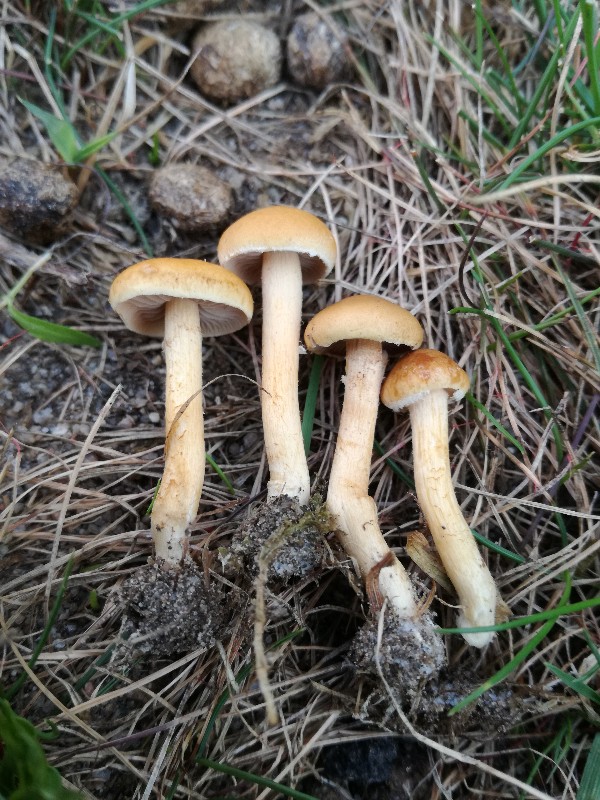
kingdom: Fungi
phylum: Basidiomycota
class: Agaricomycetes
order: Agaricales
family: Strophariaceae
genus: Leratiomyces
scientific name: Leratiomyces laetissimus
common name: mark-bredblad
